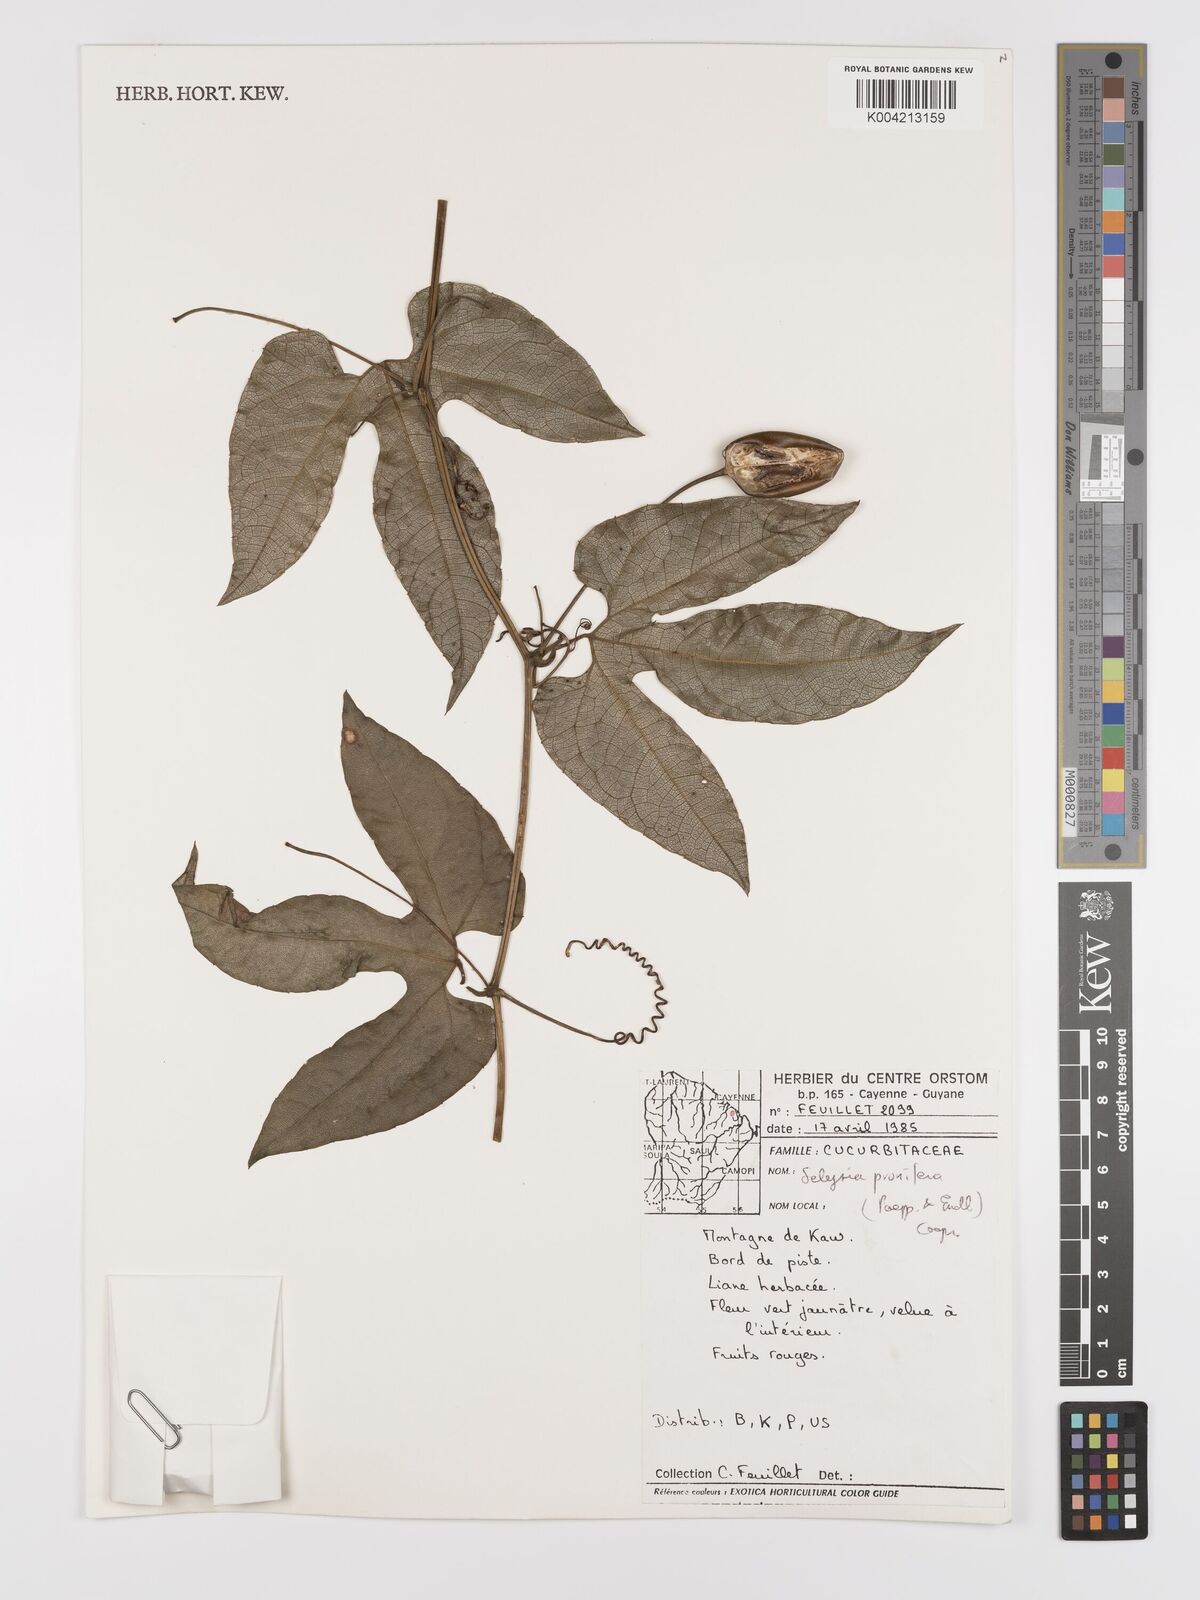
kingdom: Plantae
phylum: Tracheophyta
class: Magnoliopsida
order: Cucurbitales
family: Cucurbitaceae
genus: Cayaponia
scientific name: Cayaponia prunifera
